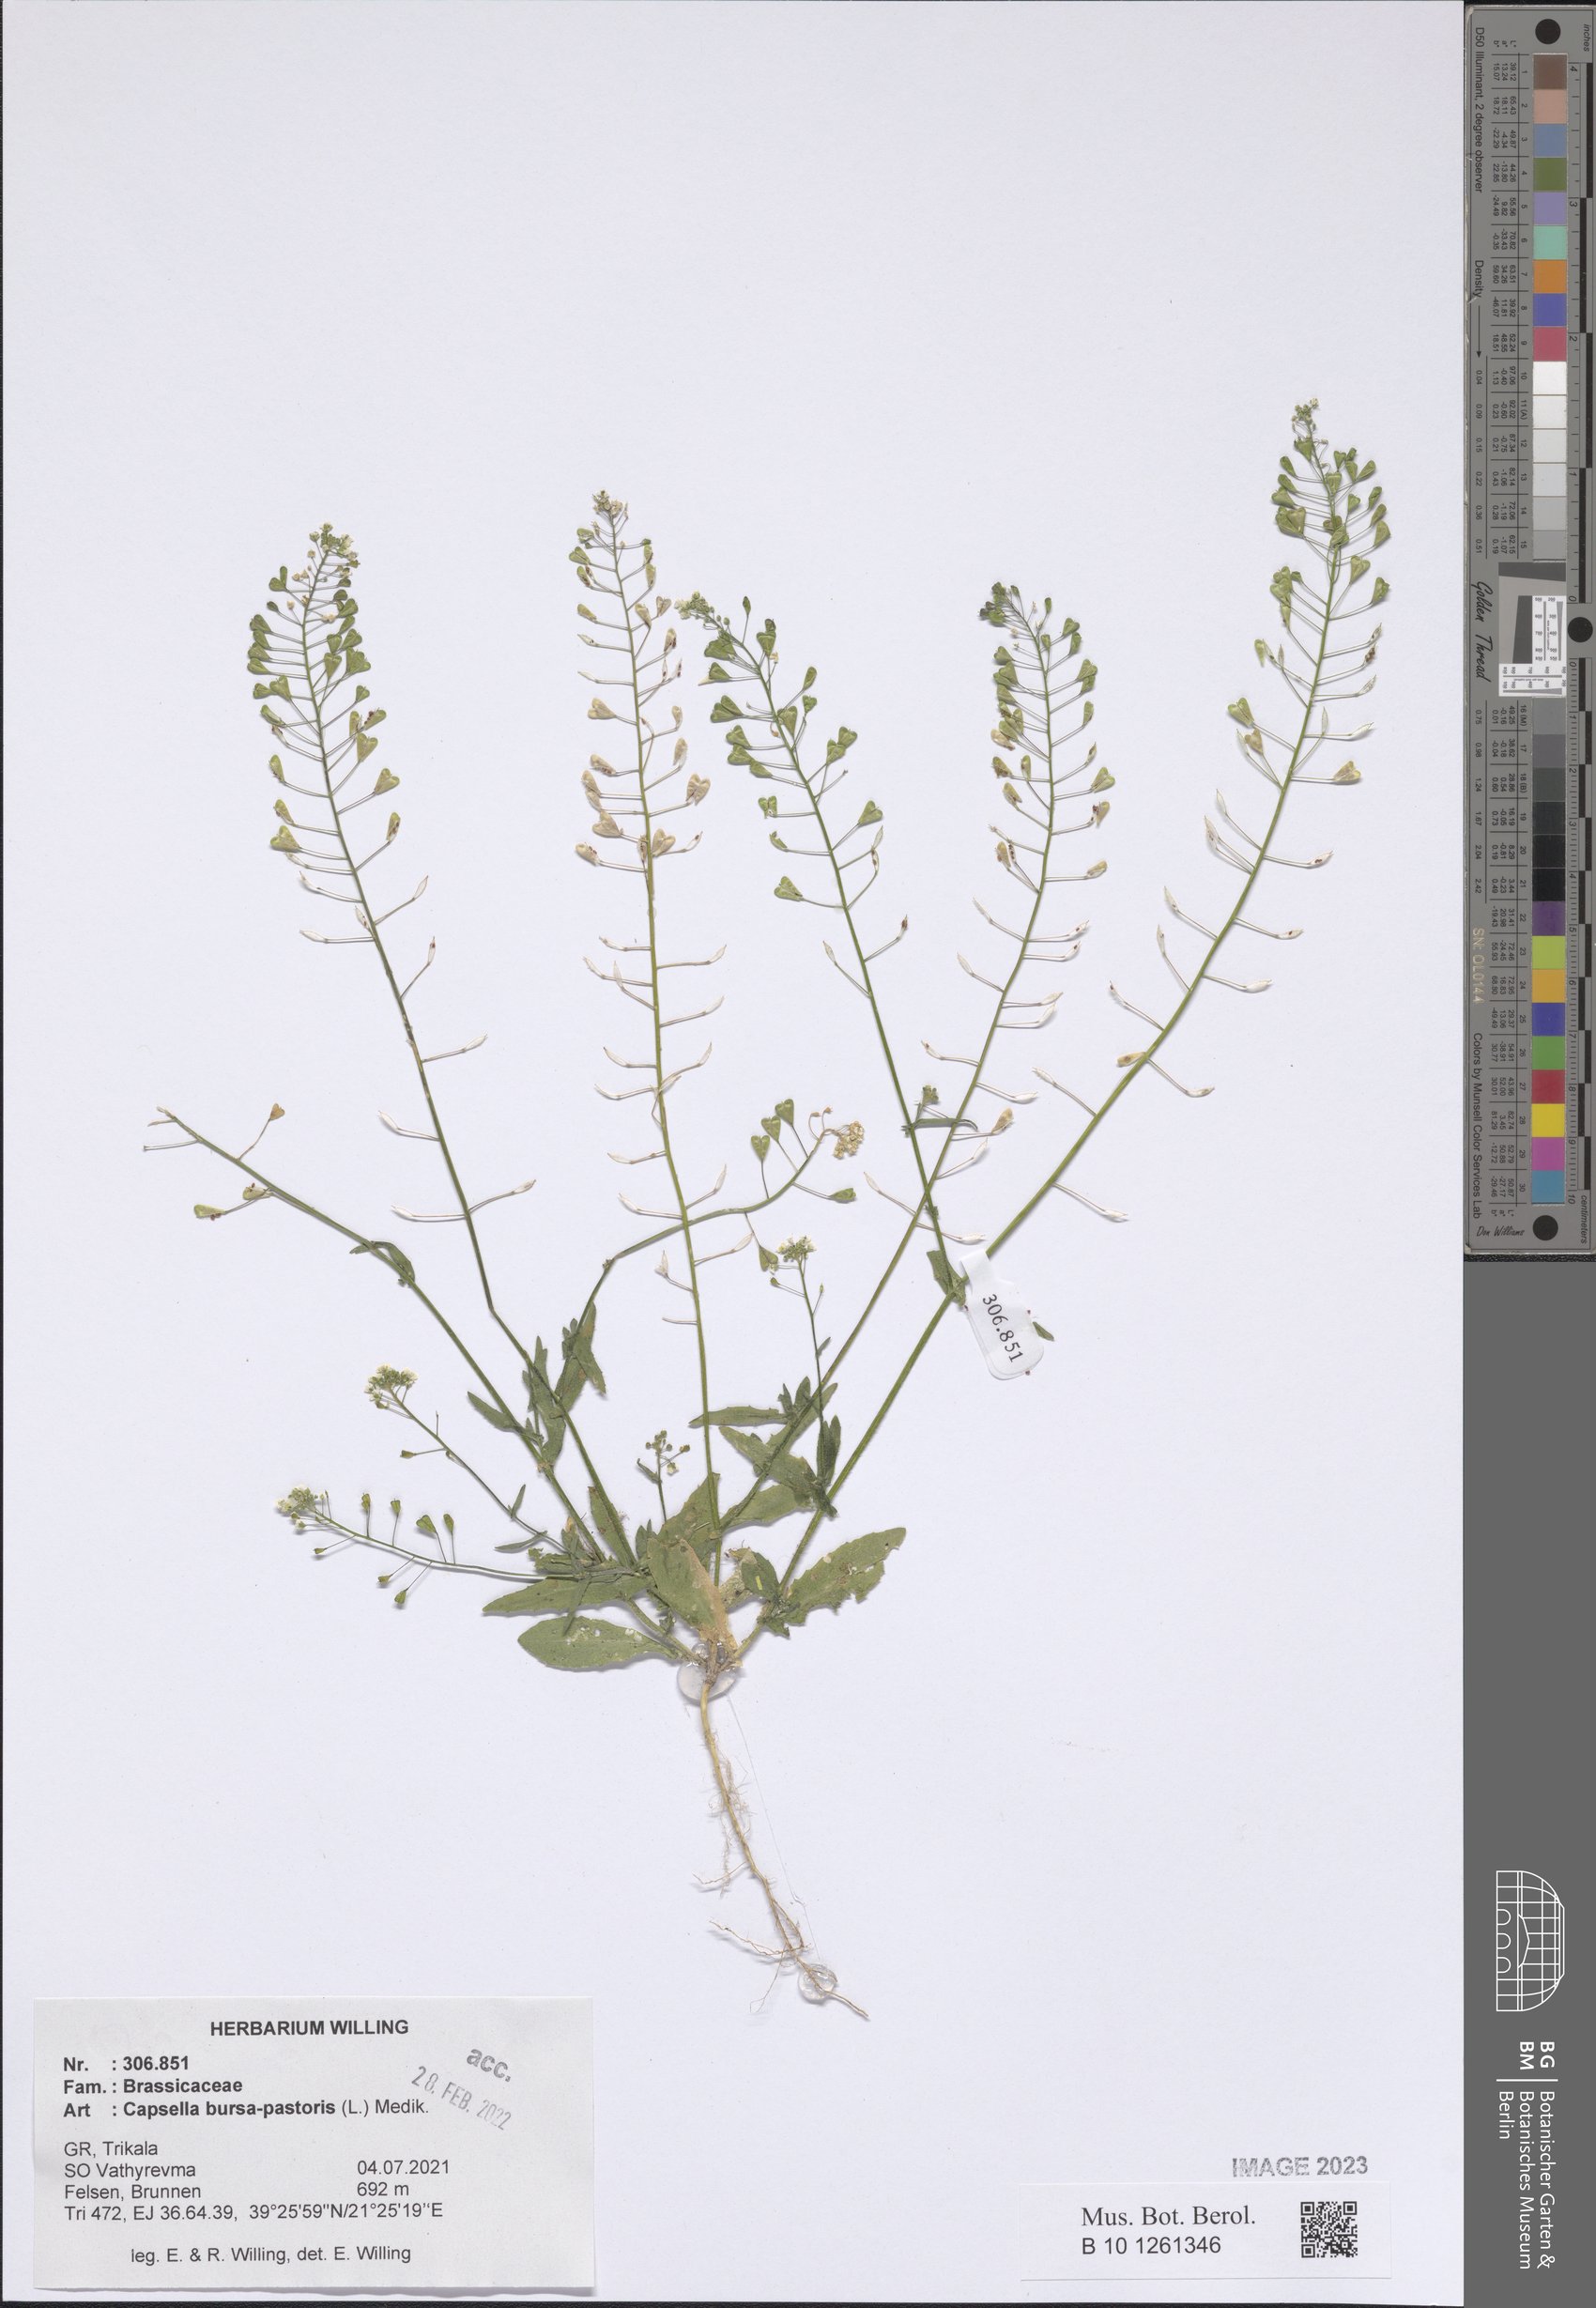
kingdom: Plantae
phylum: Tracheophyta
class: Magnoliopsida
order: Brassicales
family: Brassicaceae
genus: Capsella
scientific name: Capsella bursa-pastoris
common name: Shepherd's purse
